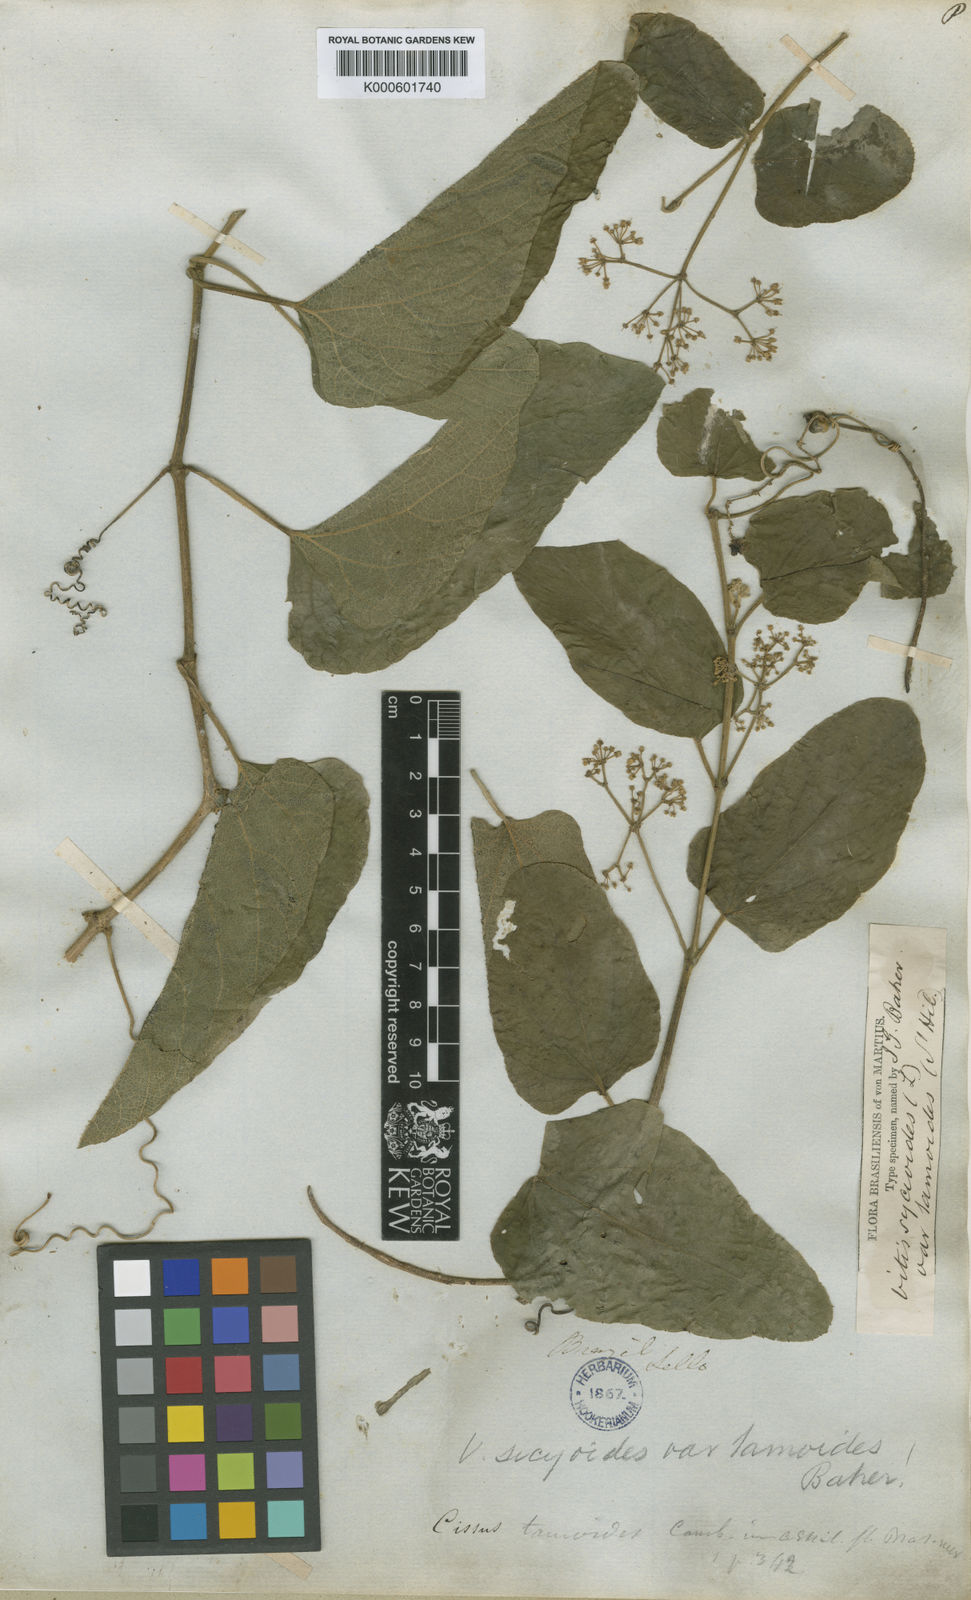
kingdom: Plantae
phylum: Tracheophyta
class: Magnoliopsida
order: Vitales
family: Vitaceae
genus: Cissus
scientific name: Cissus verticillata
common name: Princess vine
